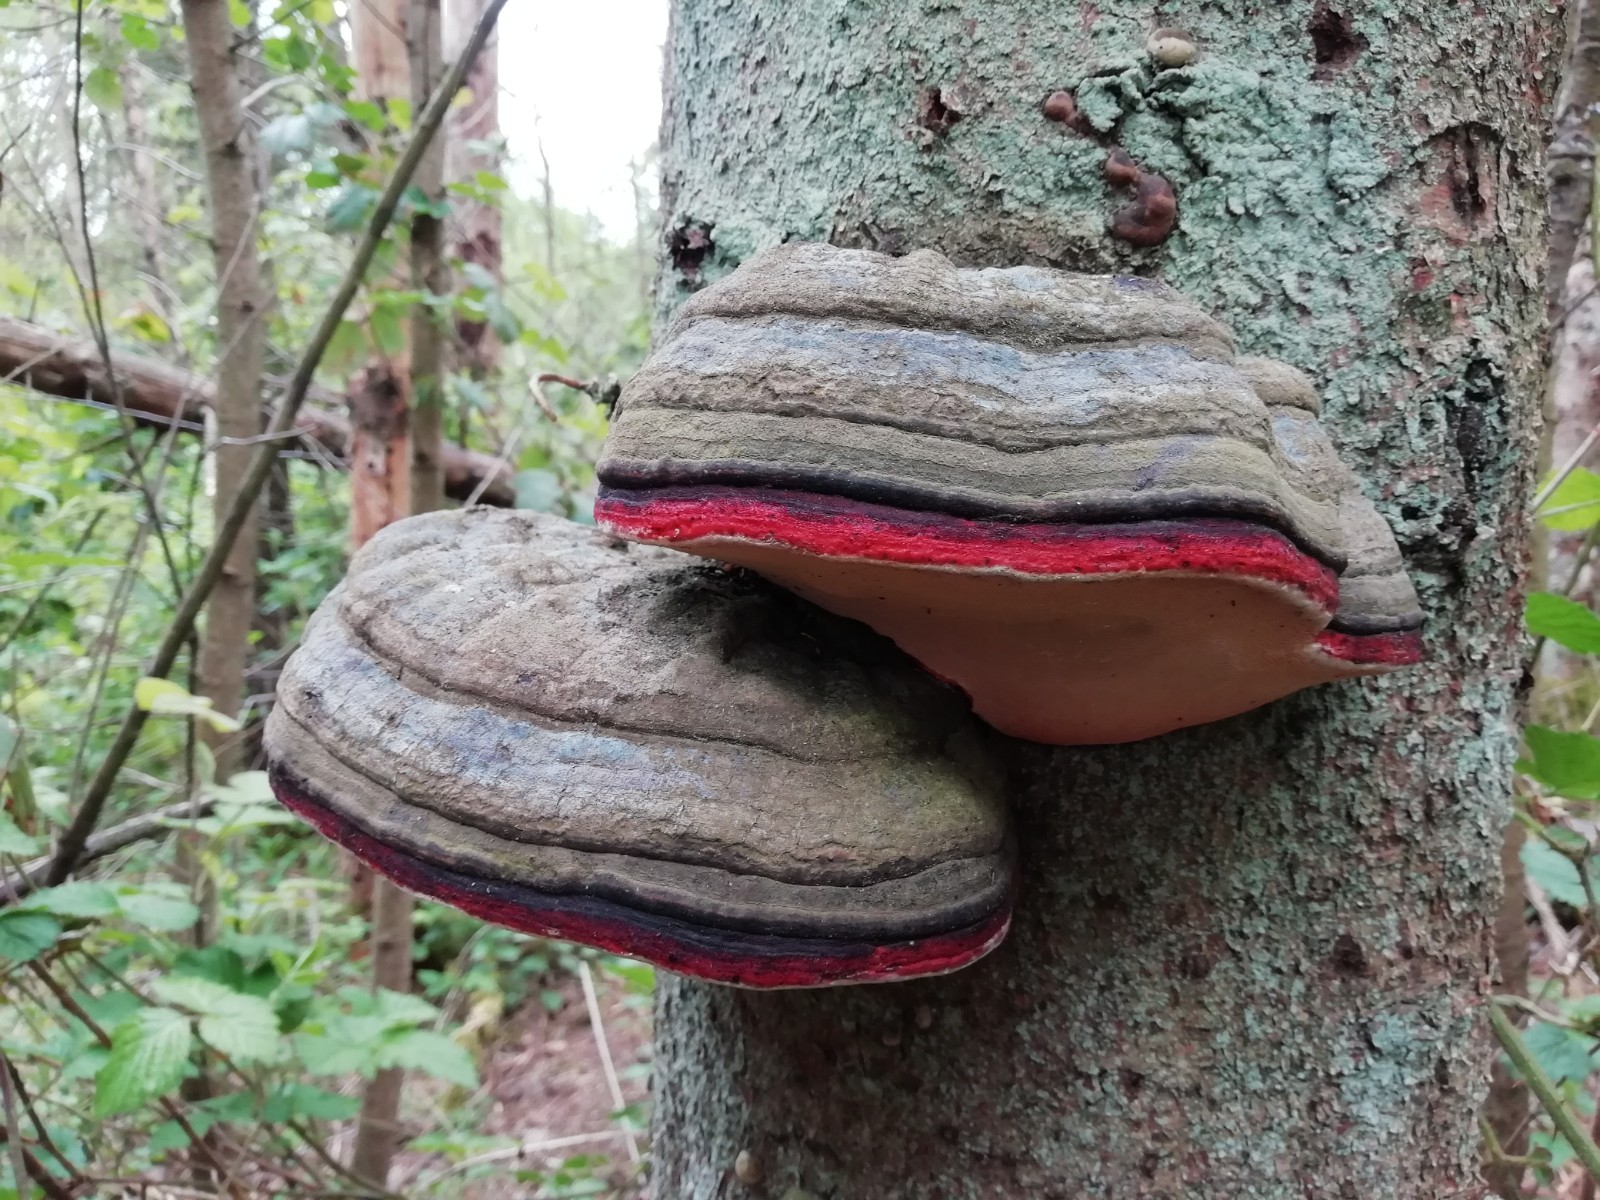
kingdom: Fungi
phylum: Basidiomycota
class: Agaricomycetes
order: Polyporales
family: Fomitopsidaceae
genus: Fomitopsis
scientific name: Fomitopsis pinicola
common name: randbæltet hovporesvamp
